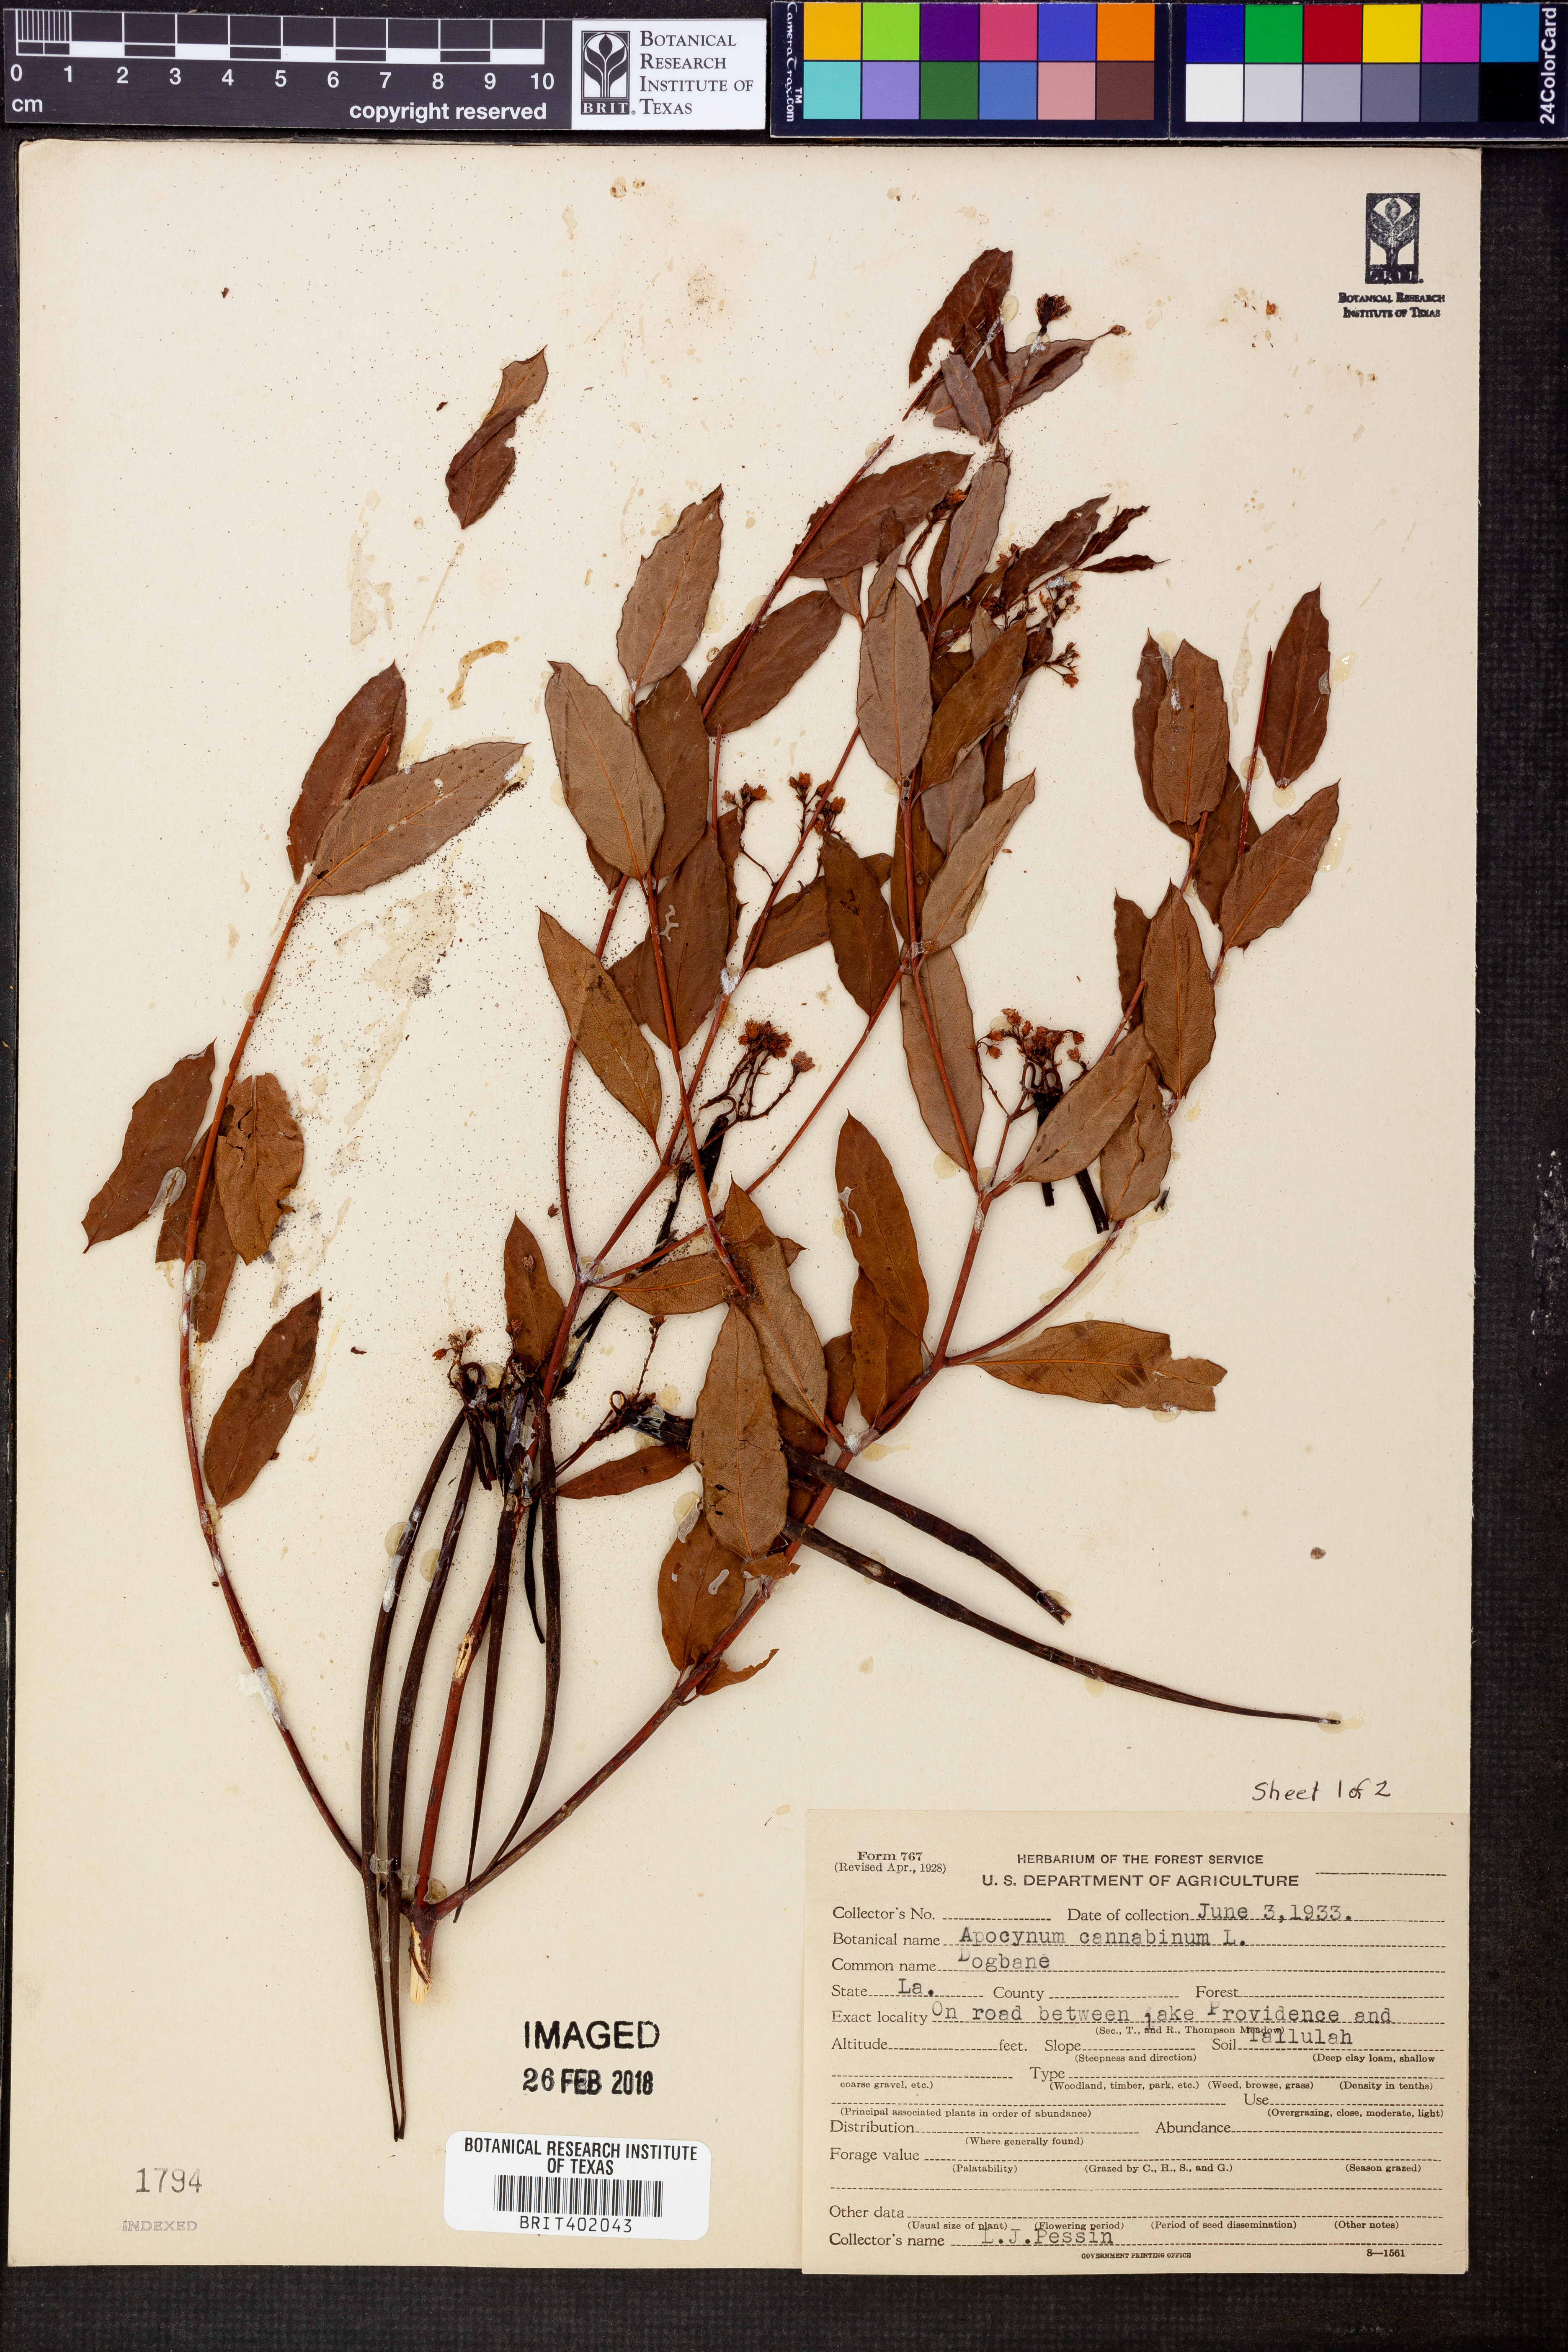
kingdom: Plantae
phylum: Tracheophyta
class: Magnoliopsida
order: Gentianales
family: Apocynaceae
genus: Apocynum
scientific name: Apocynum cannabinum
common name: Hemp dogbane
